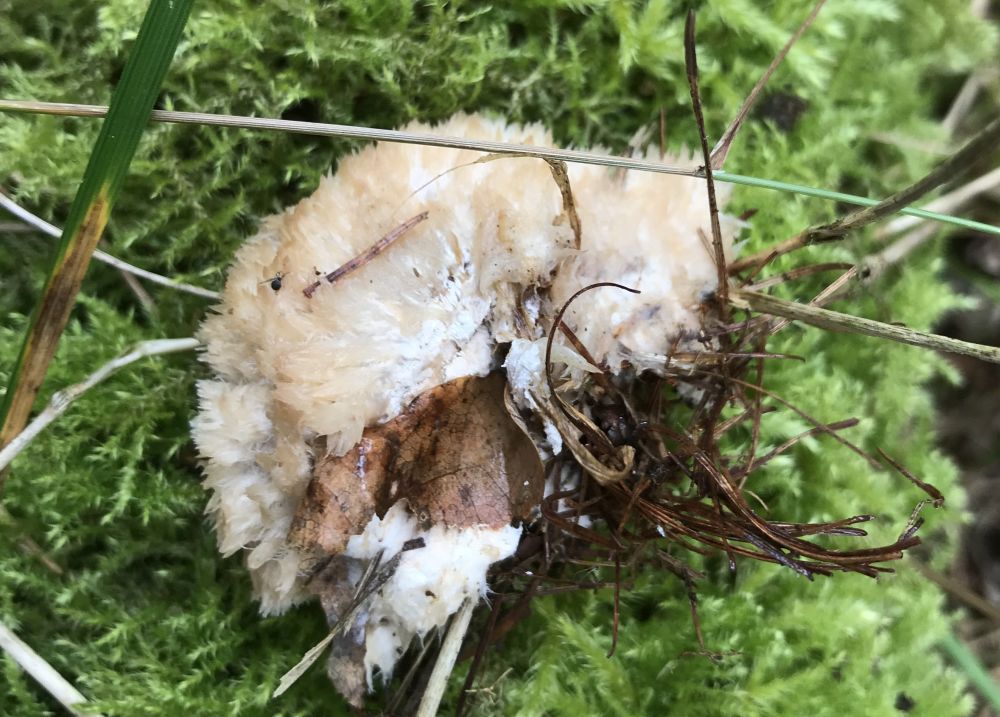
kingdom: Fungi
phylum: Basidiomycota
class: Agaricomycetes
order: Polyporales
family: Dacryobolaceae
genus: Postia
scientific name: Postia ptychogaster
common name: støvende kødporesvamp
